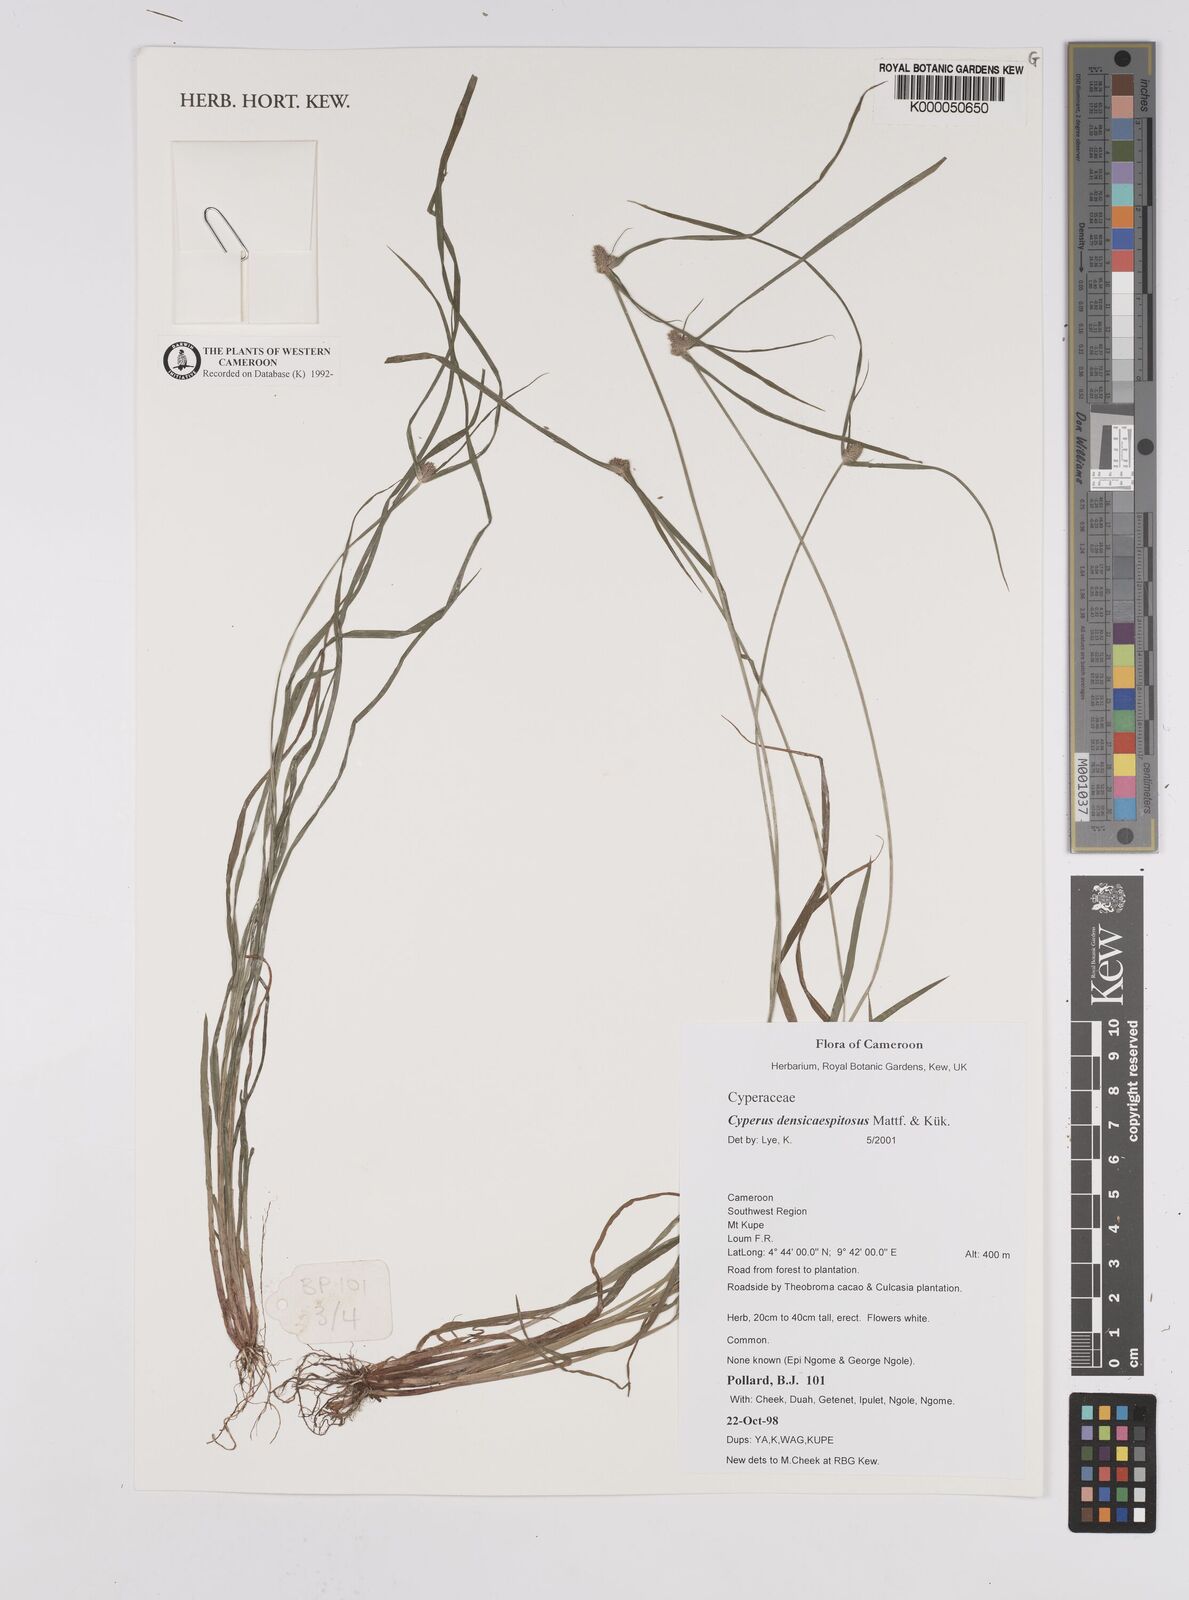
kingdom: Plantae
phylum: Tracheophyta
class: Liliopsida
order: Poales
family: Cyperaceae
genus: Cyperus
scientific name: Cyperus
